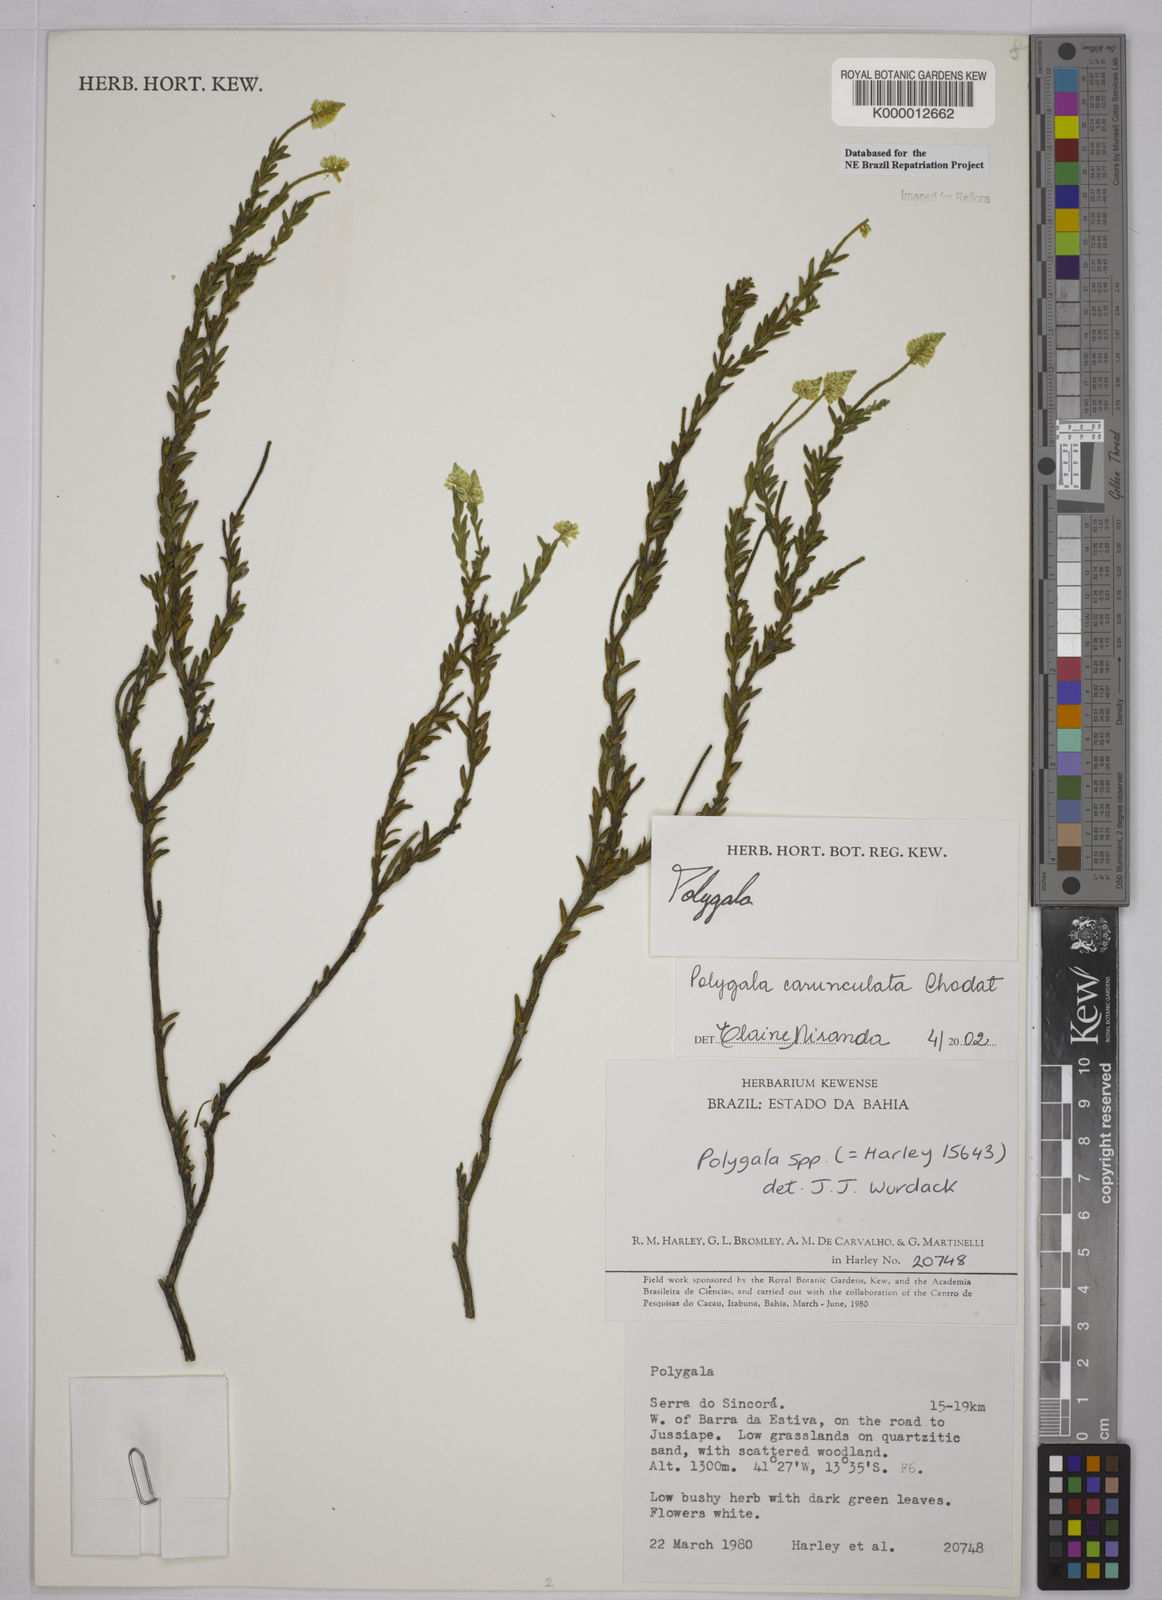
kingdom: Plantae
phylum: Tracheophyta
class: Magnoliopsida
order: Fabales
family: Polygalaceae
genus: Polygala
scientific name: Polygala tuberculata
